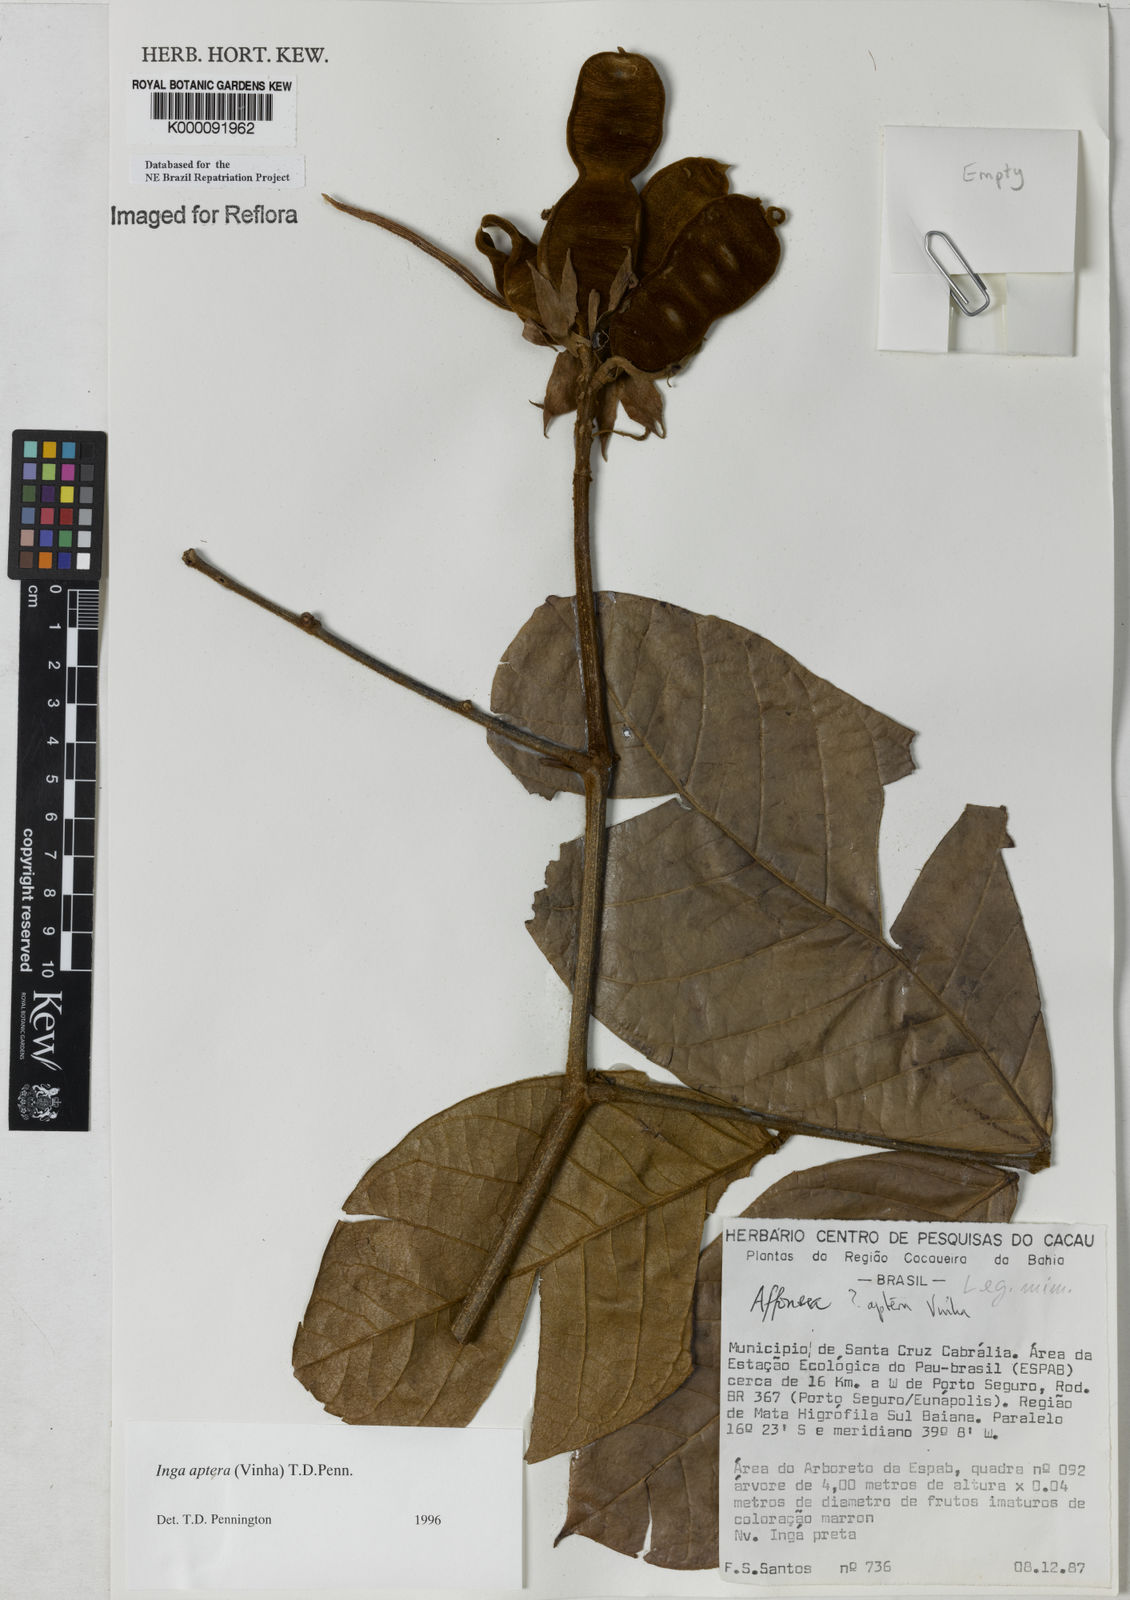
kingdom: Plantae
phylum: Tracheophyta
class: Magnoliopsida
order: Fabales
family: Fabaceae
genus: Inga
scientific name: Inga aptera
